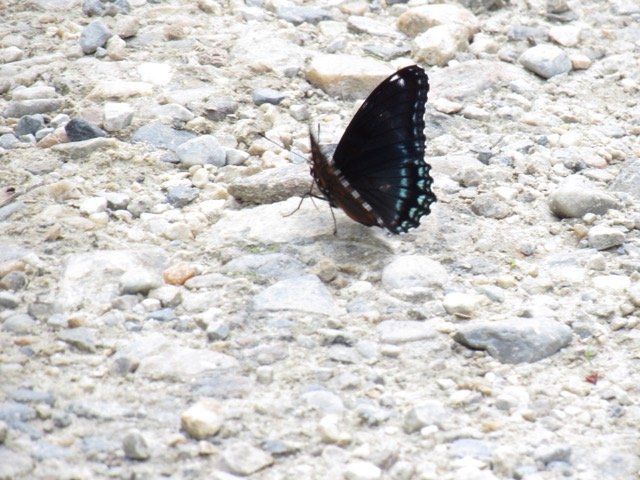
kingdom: Animalia
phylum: Arthropoda
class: Insecta
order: Lepidoptera
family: Nymphalidae
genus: Limenitis
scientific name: Limenitis
